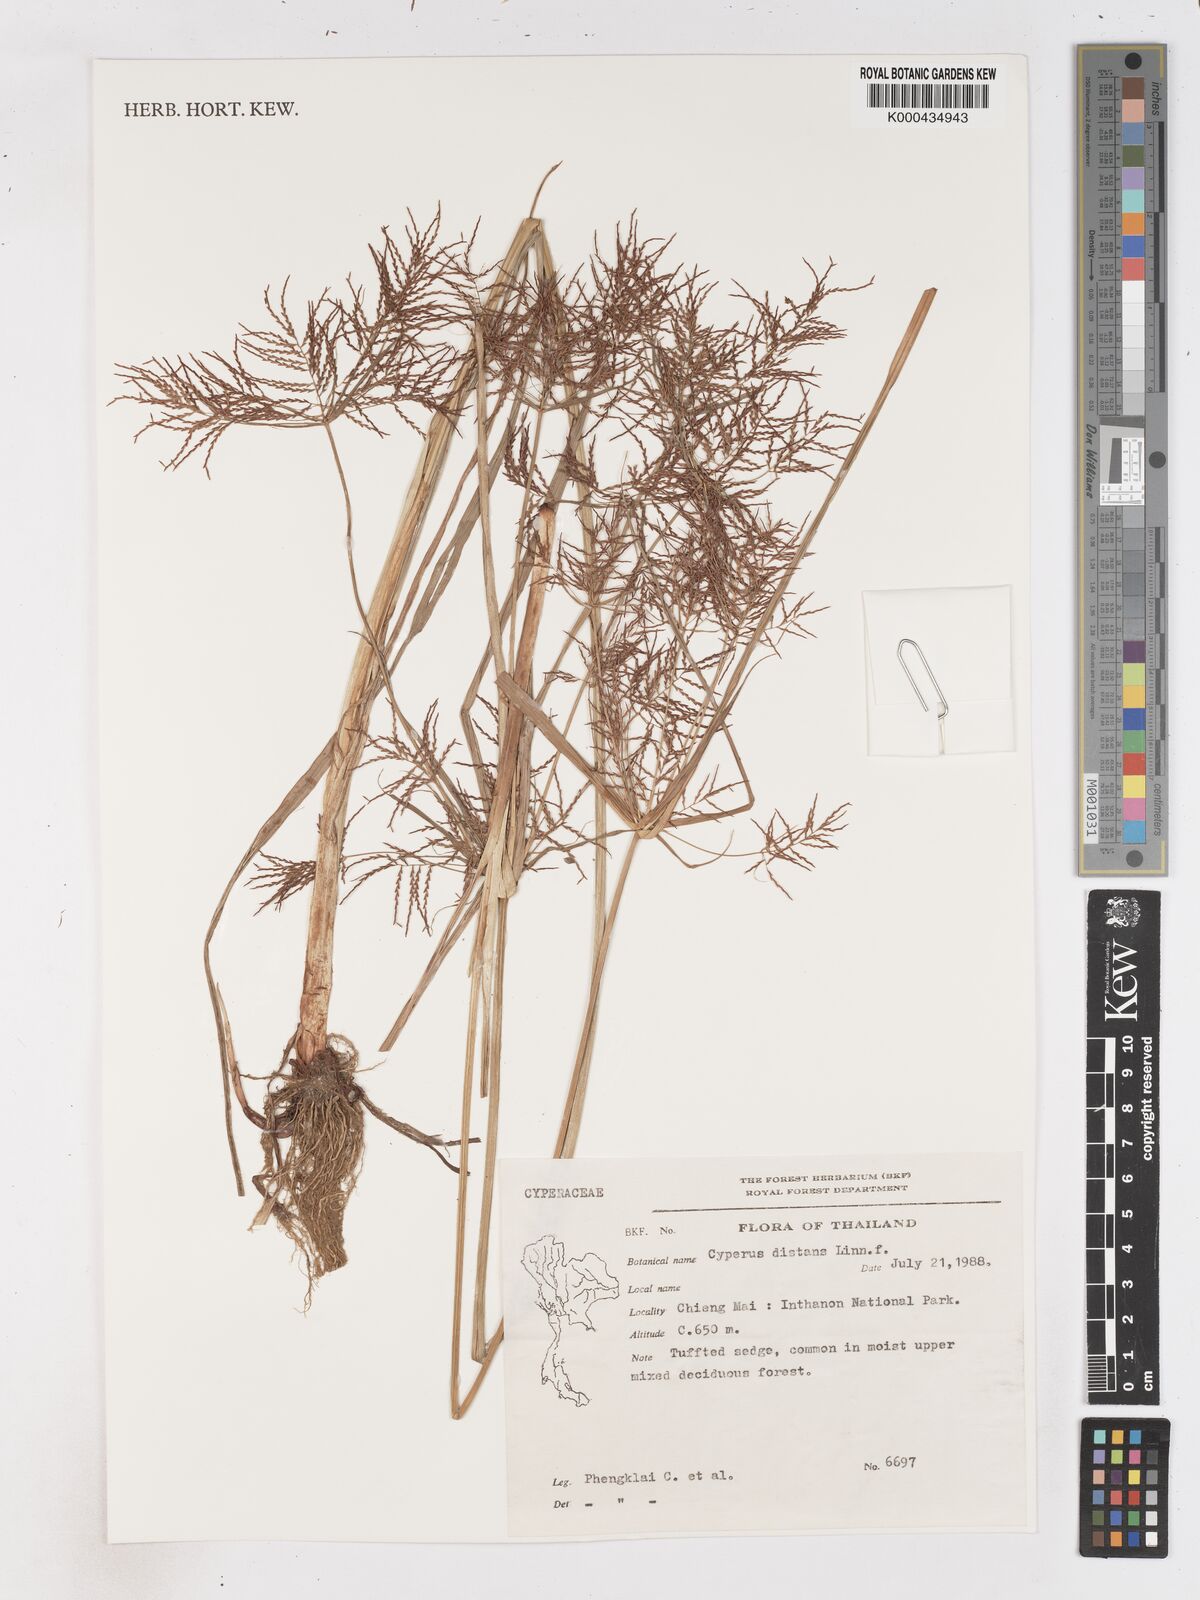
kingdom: Plantae
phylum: Tracheophyta
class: Liliopsida
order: Poales
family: Cyperaceae
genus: Cyperus
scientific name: Cyperus distans
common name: Slender cyperus
